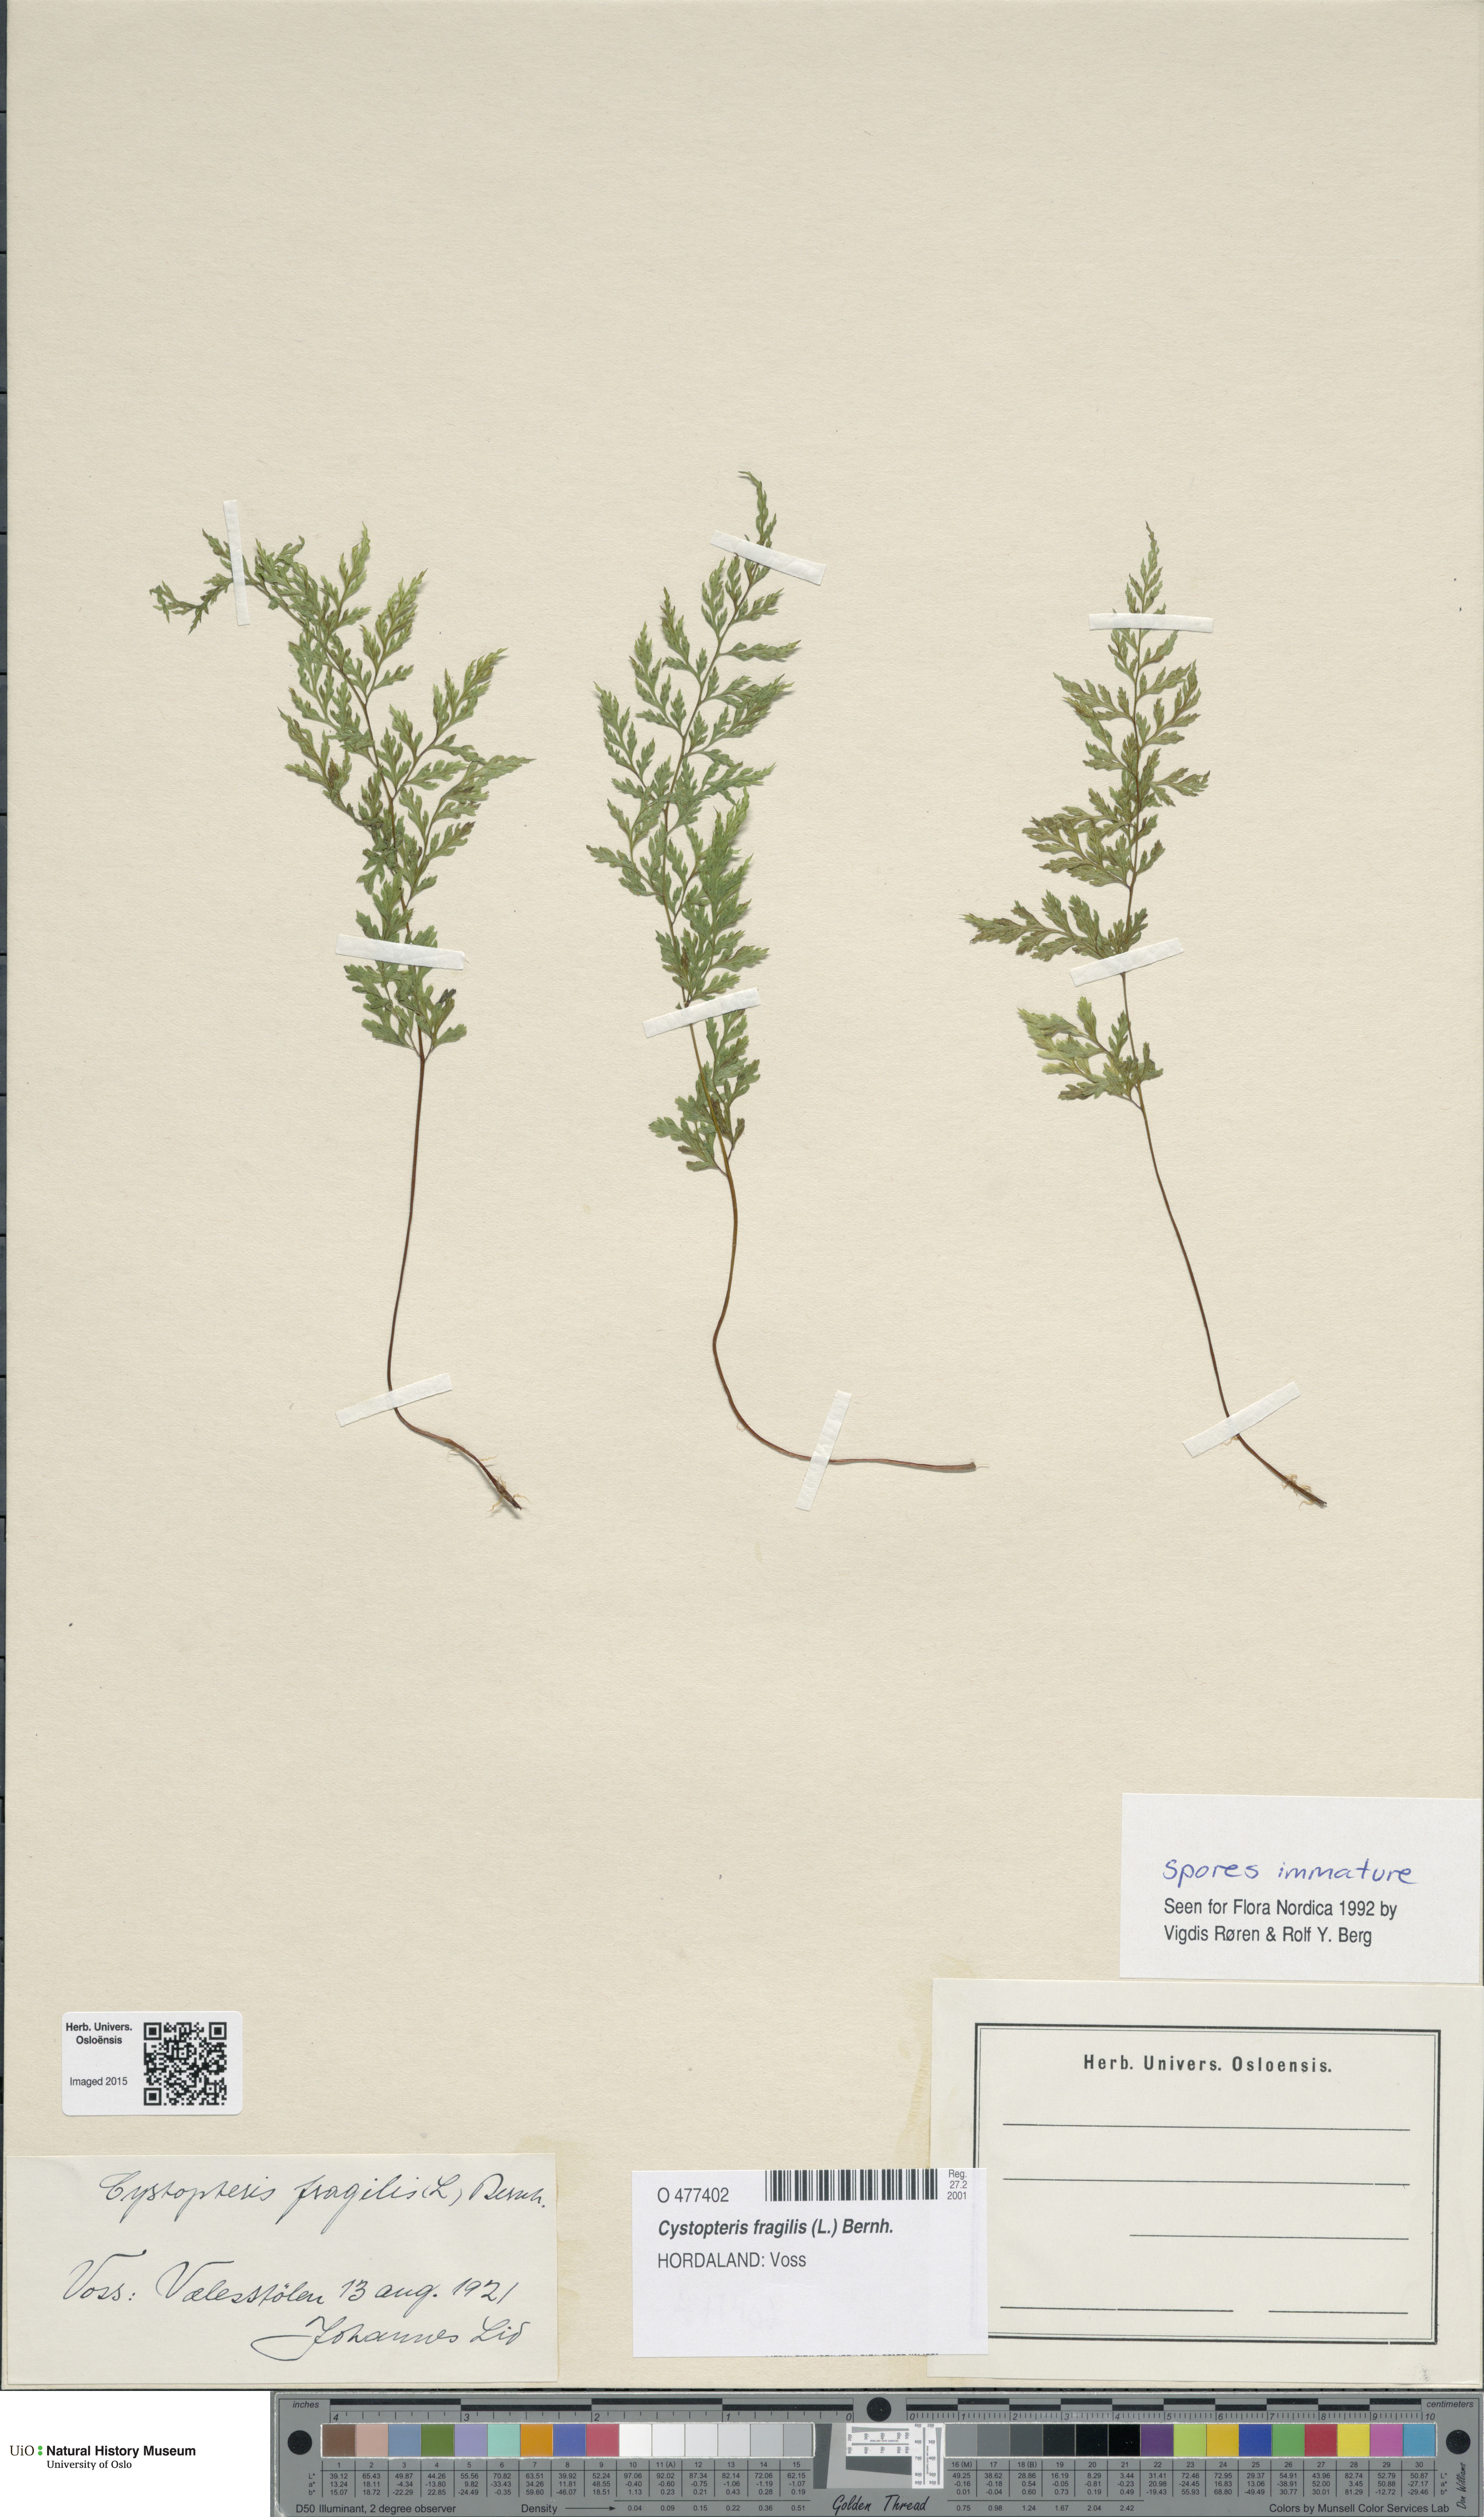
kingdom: Plantae
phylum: Tracheophyta
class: Polypodiopsida
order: Polypodiales
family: Cystopteridaceae
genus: Cystopteris
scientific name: Cystopteris fragilis
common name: Brittle bladder fern
